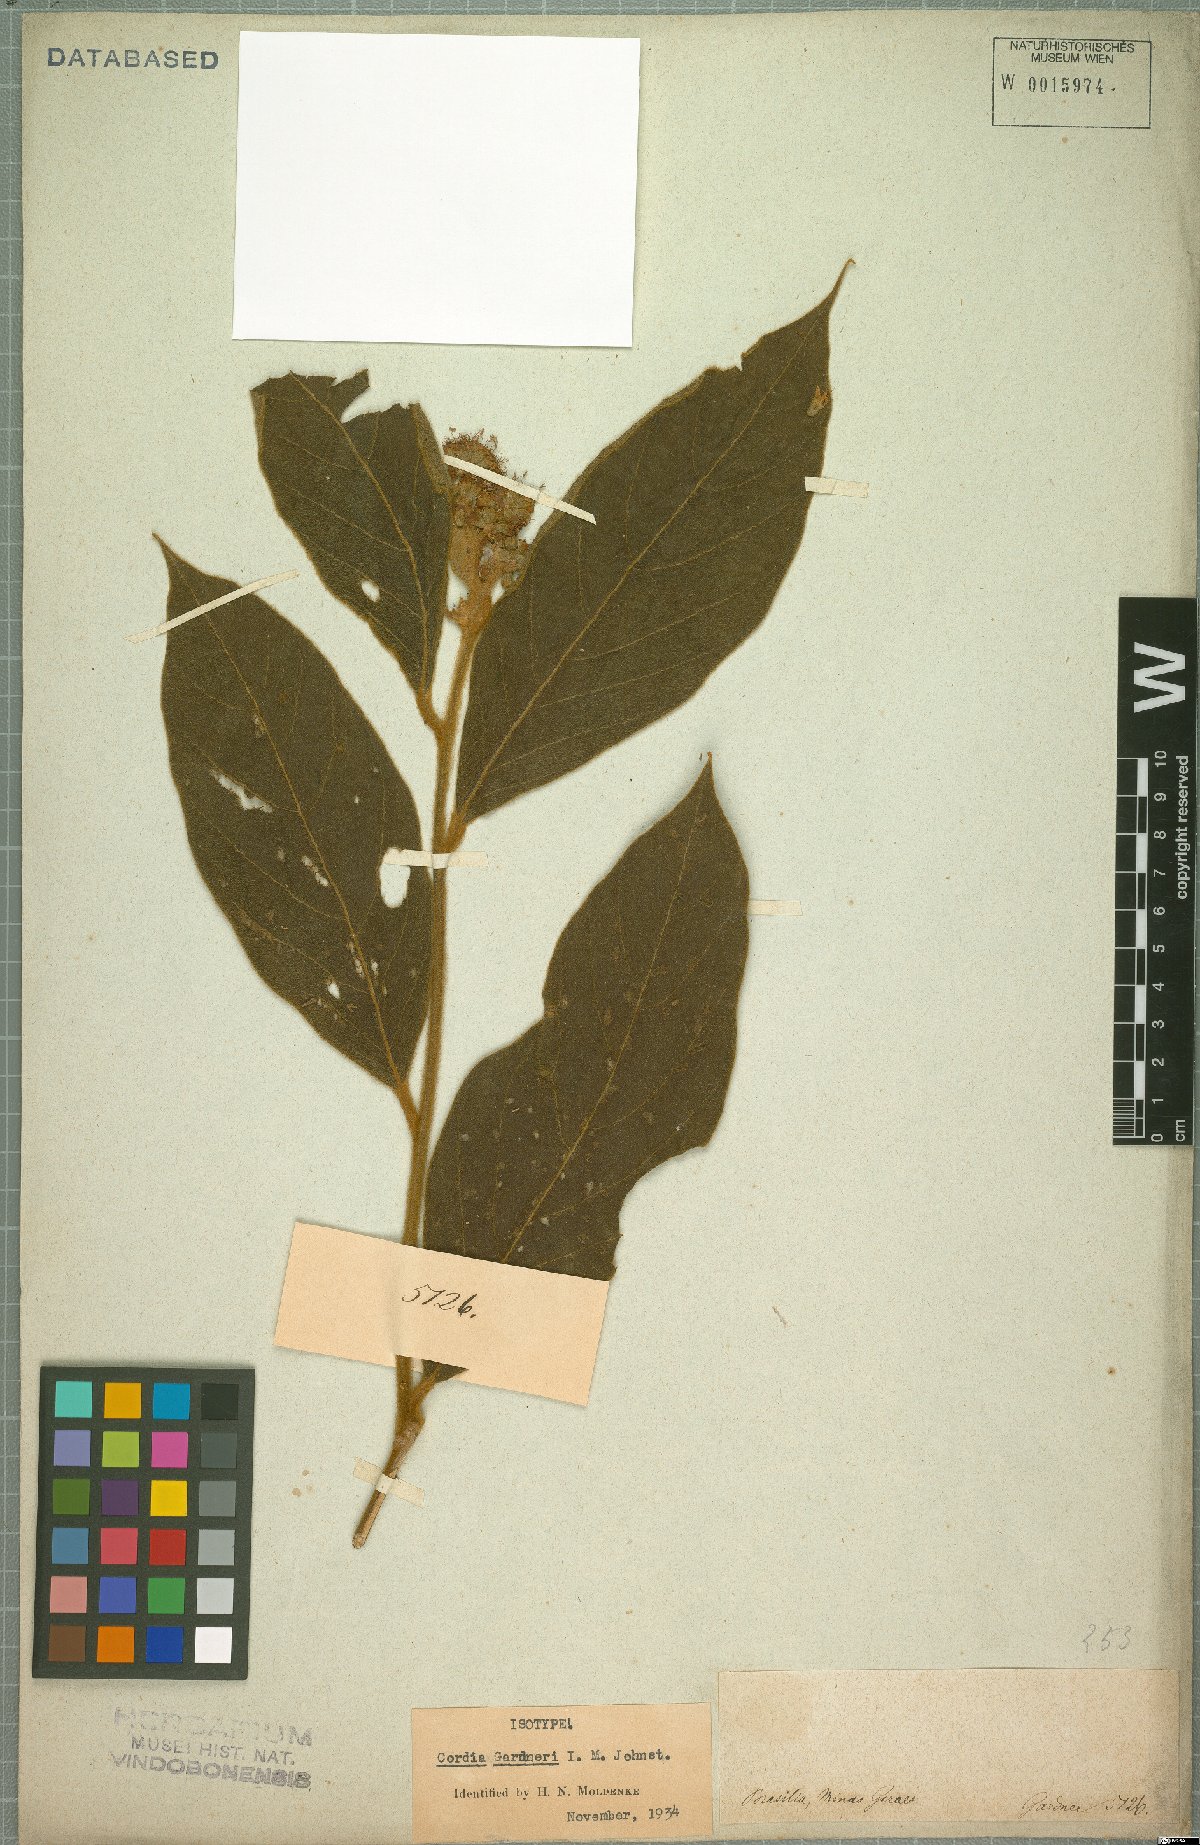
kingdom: Plantae
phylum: Tracheophyta
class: Magnoliopsida
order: Boraginales
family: Cordiaceae
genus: Cordia
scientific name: Cordia gardneri
